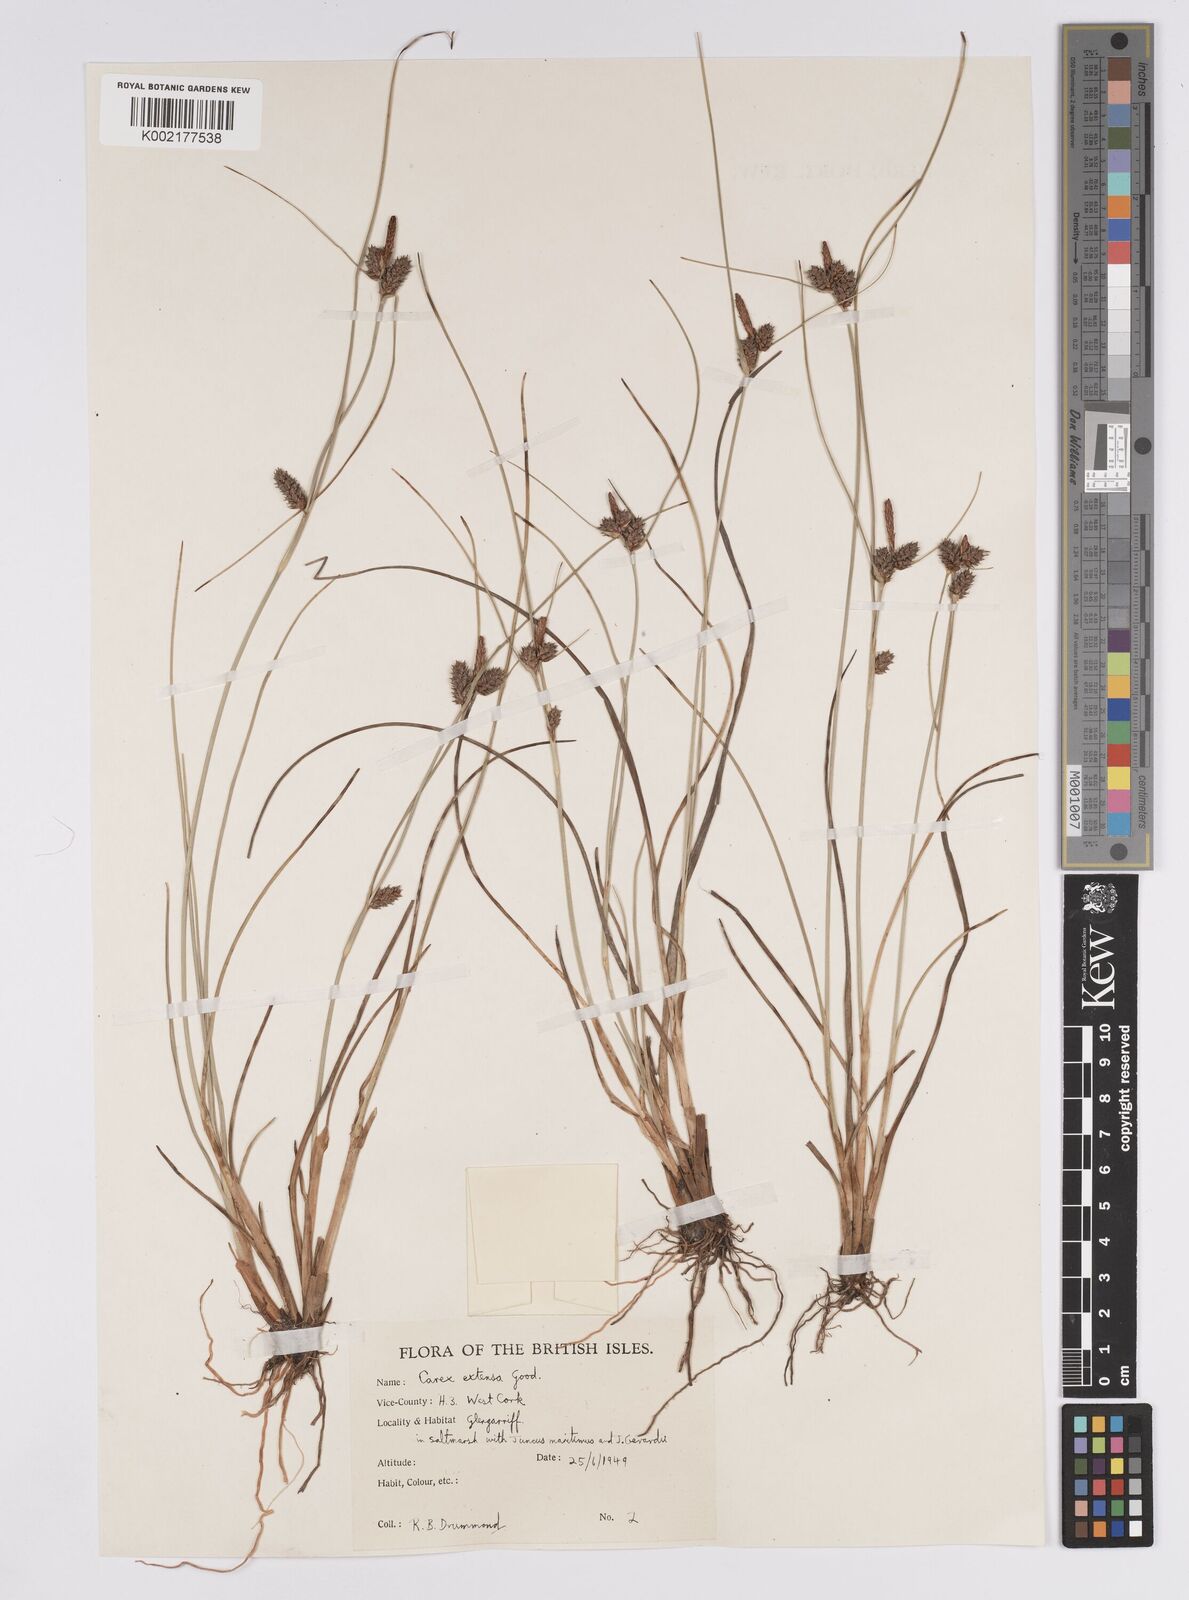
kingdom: Plantae
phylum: Tracheophyta
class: Liliopsida
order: Poales
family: Cyperaceae
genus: Carex
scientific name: Carex extensa
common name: Long-bracted sedge
